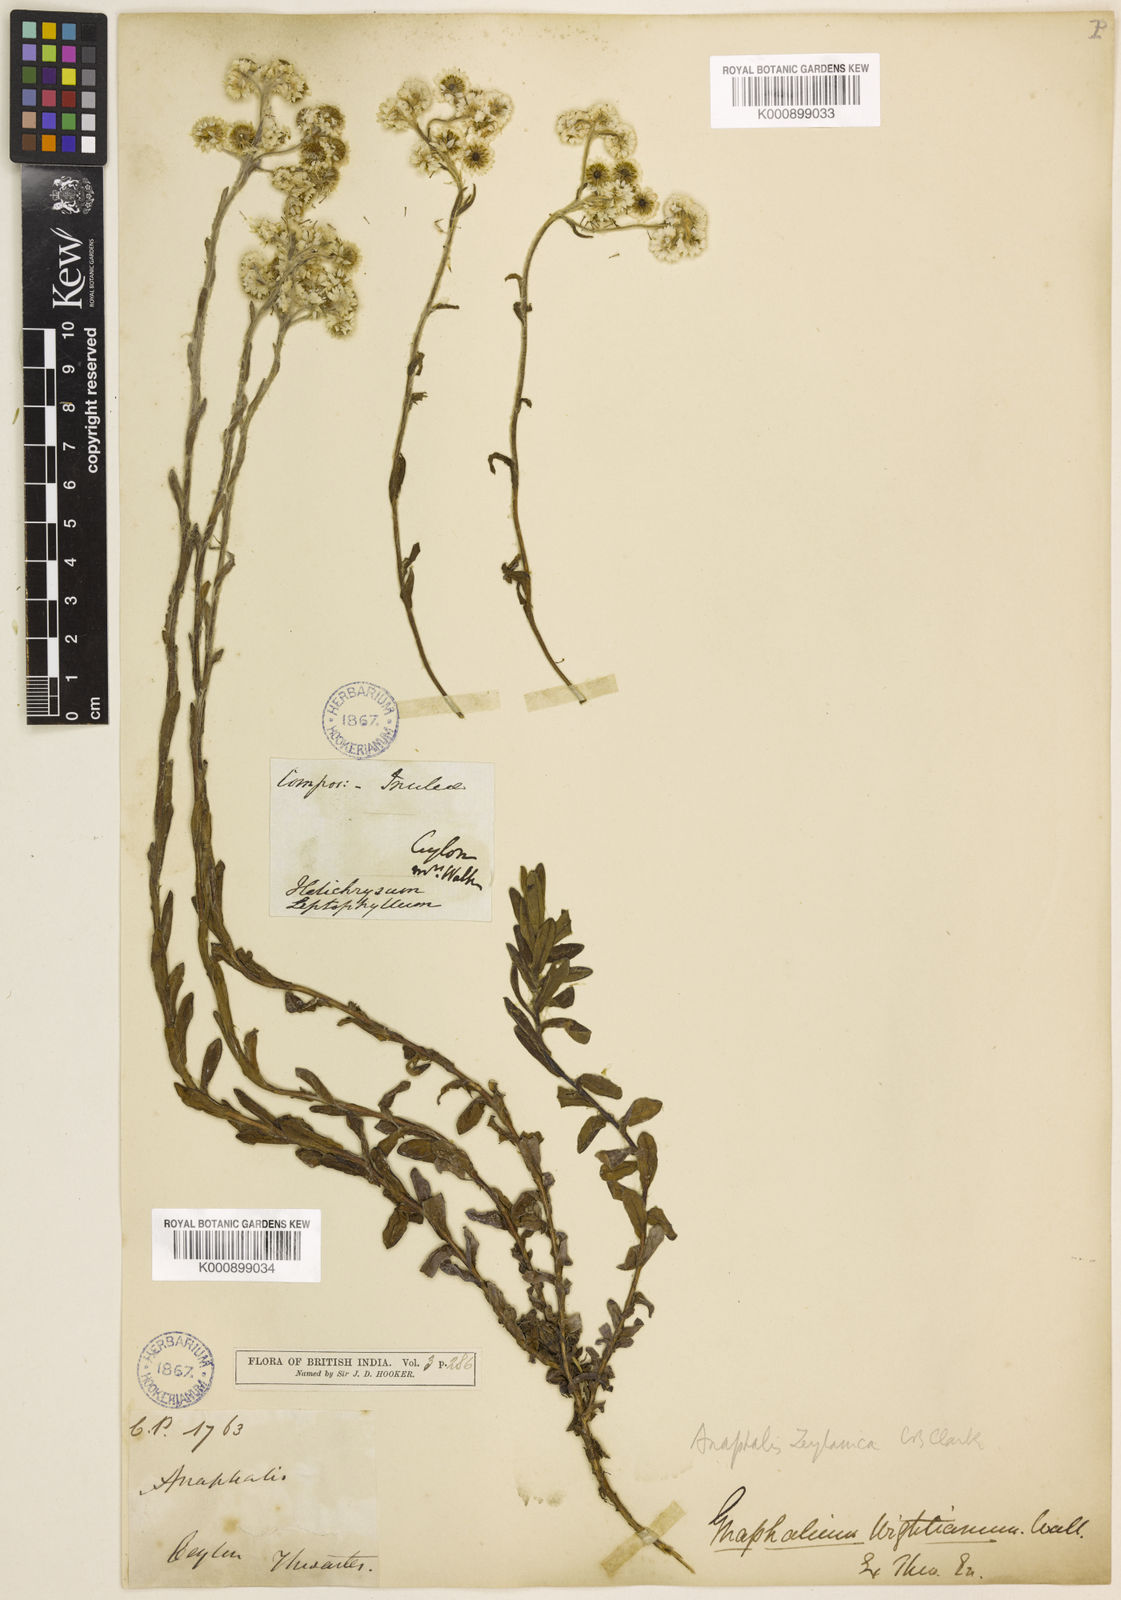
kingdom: Plantae
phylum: Tracheophyta
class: Magnoliopsida
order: Asterales
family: Asteraceae
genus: Anaphalis
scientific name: Anaphalis zeylanica
